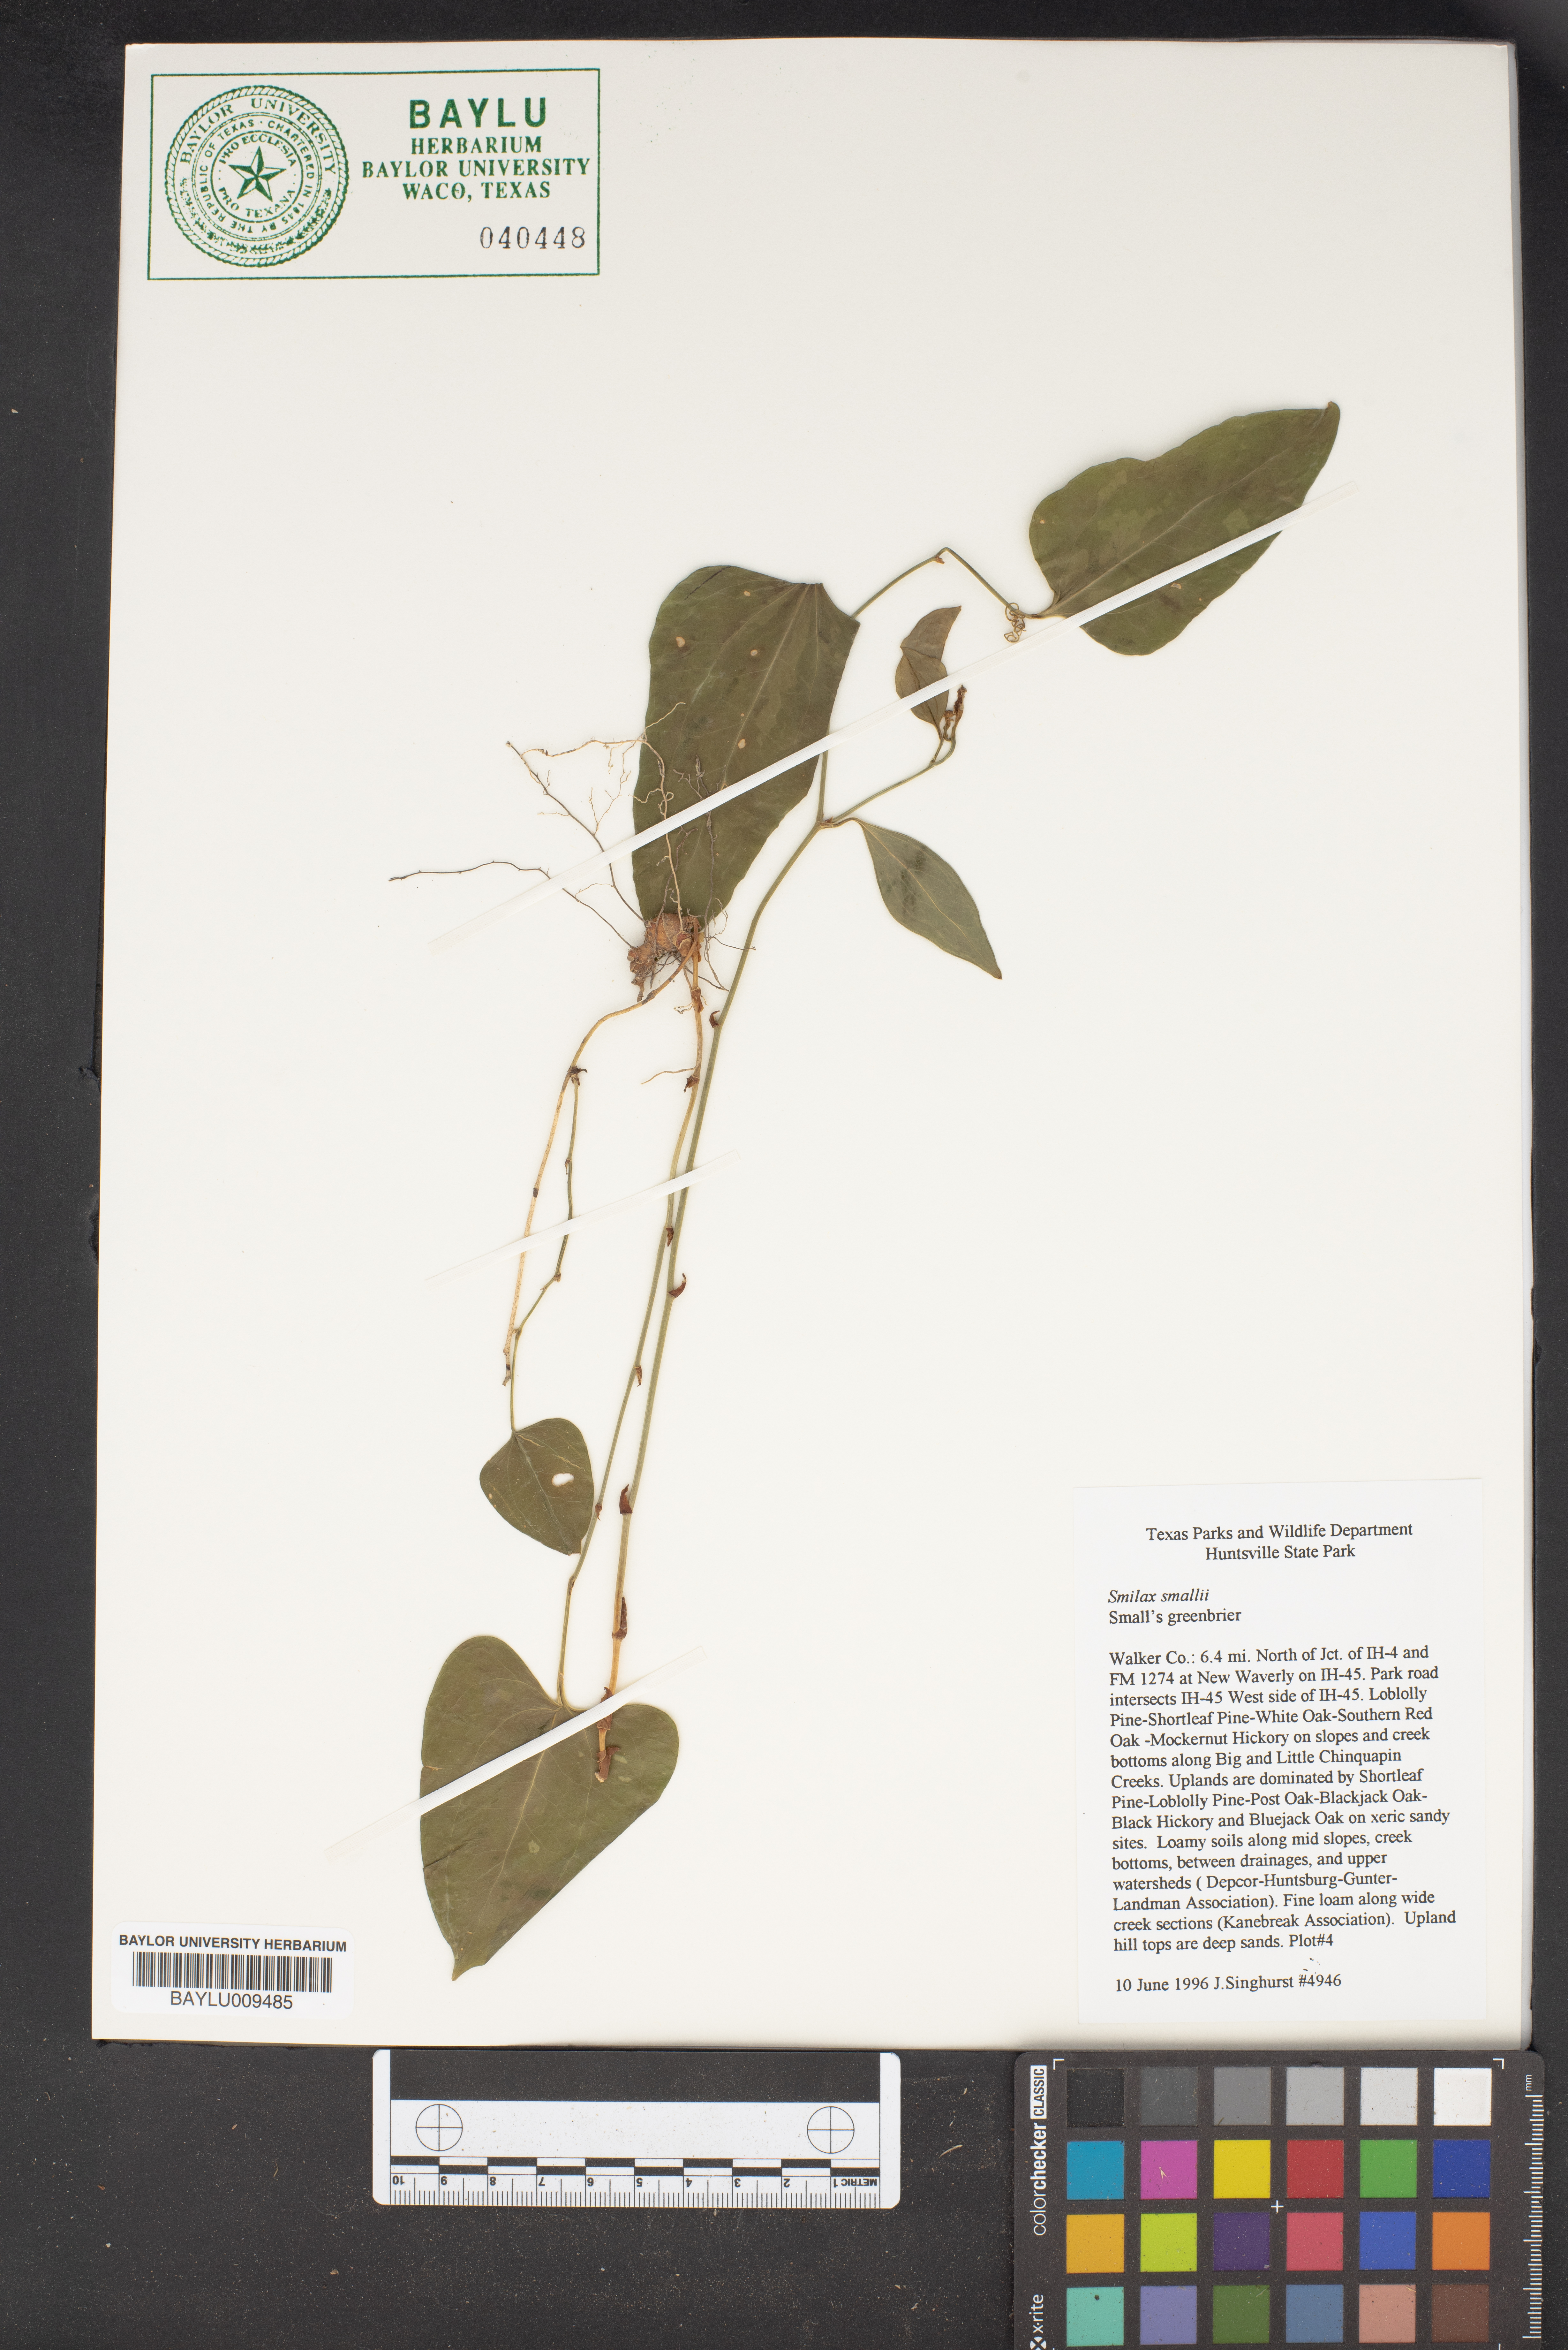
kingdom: Plantae
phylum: Tracheophyta
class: Liliopsida
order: Liliales
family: Smilacaceae
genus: Smilax
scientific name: Smilax maritima
